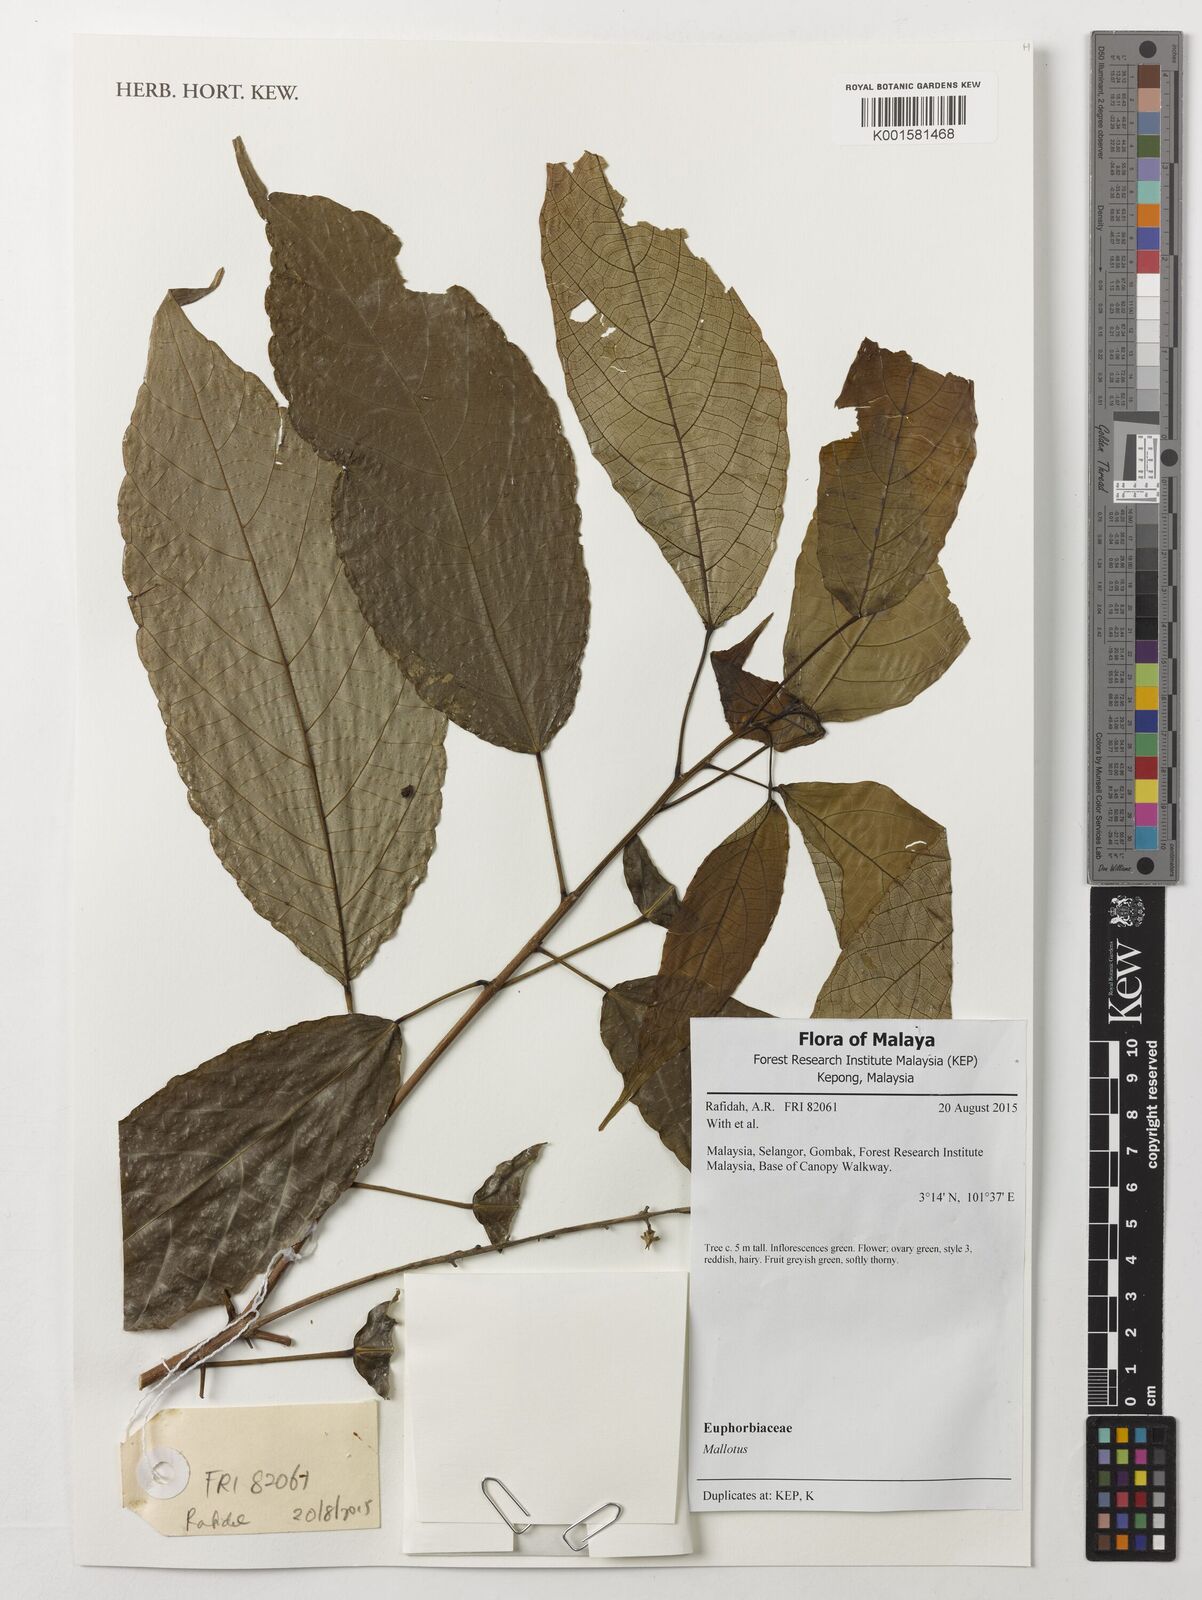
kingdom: Plantae
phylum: Tracheophyta
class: Magnoliopsida
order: Malpighiales
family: Euphorbiaceae
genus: Mallotus
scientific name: Mallotus
